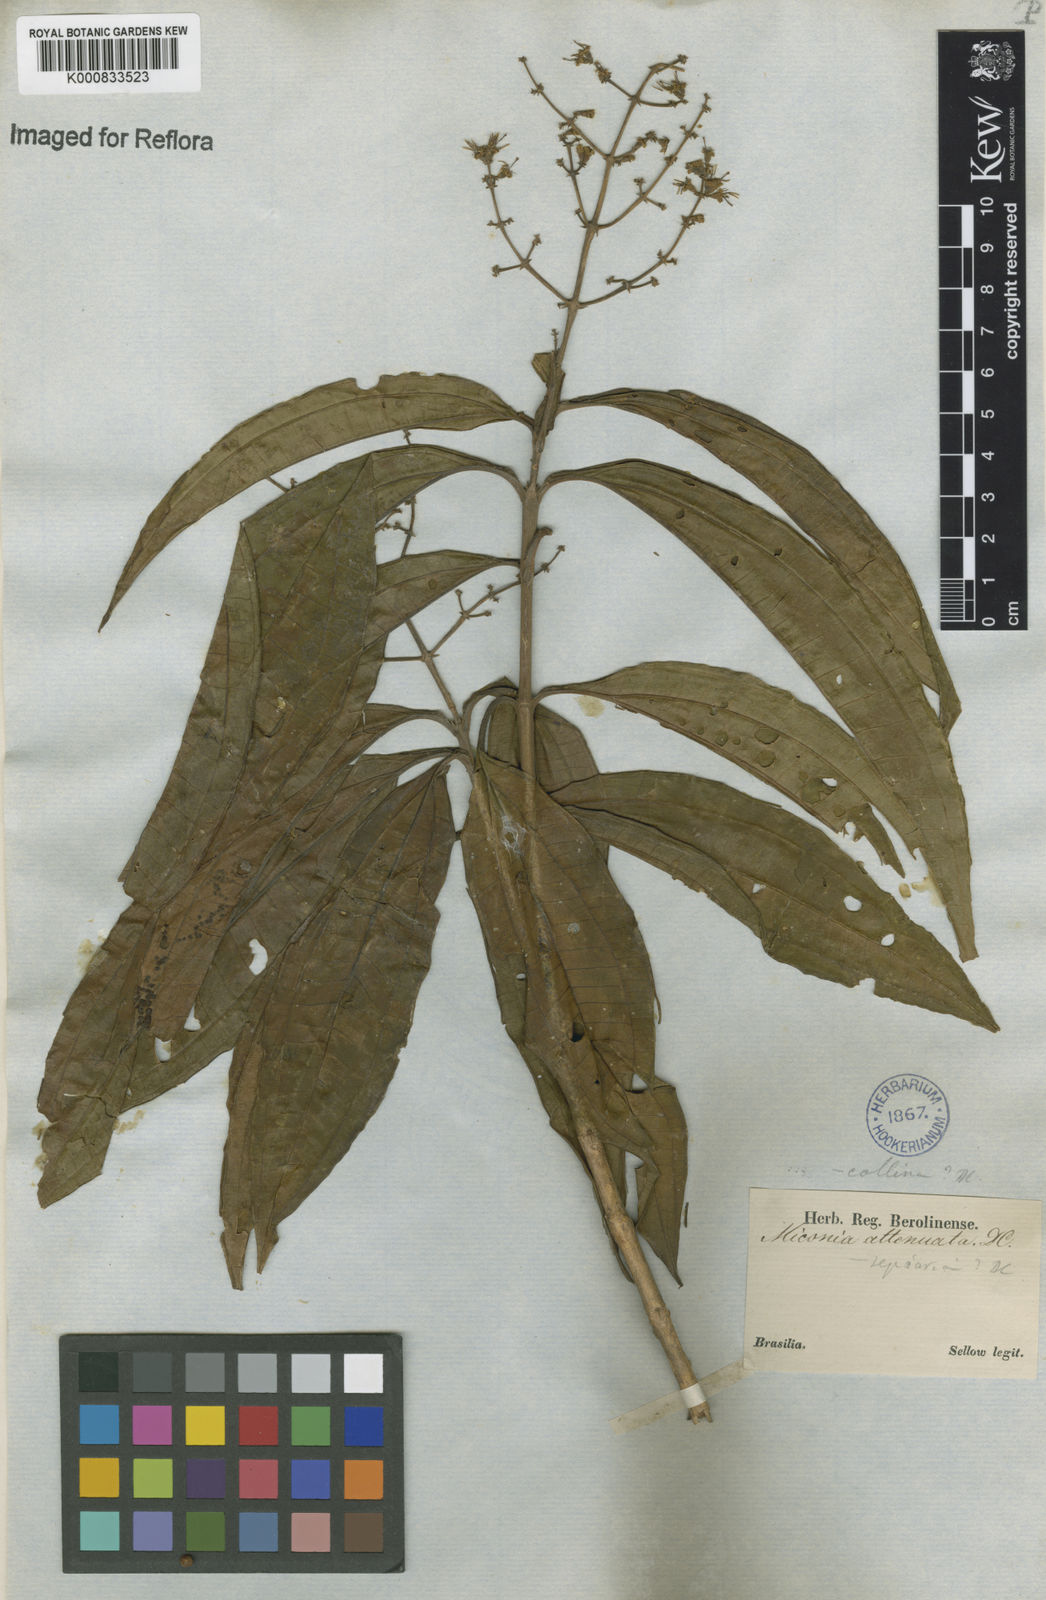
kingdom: Plantae
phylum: Tracheophyta
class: Magnoliopsida
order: Myrtales
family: Melastomataceae
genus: Miconia
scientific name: Miconia prasina
